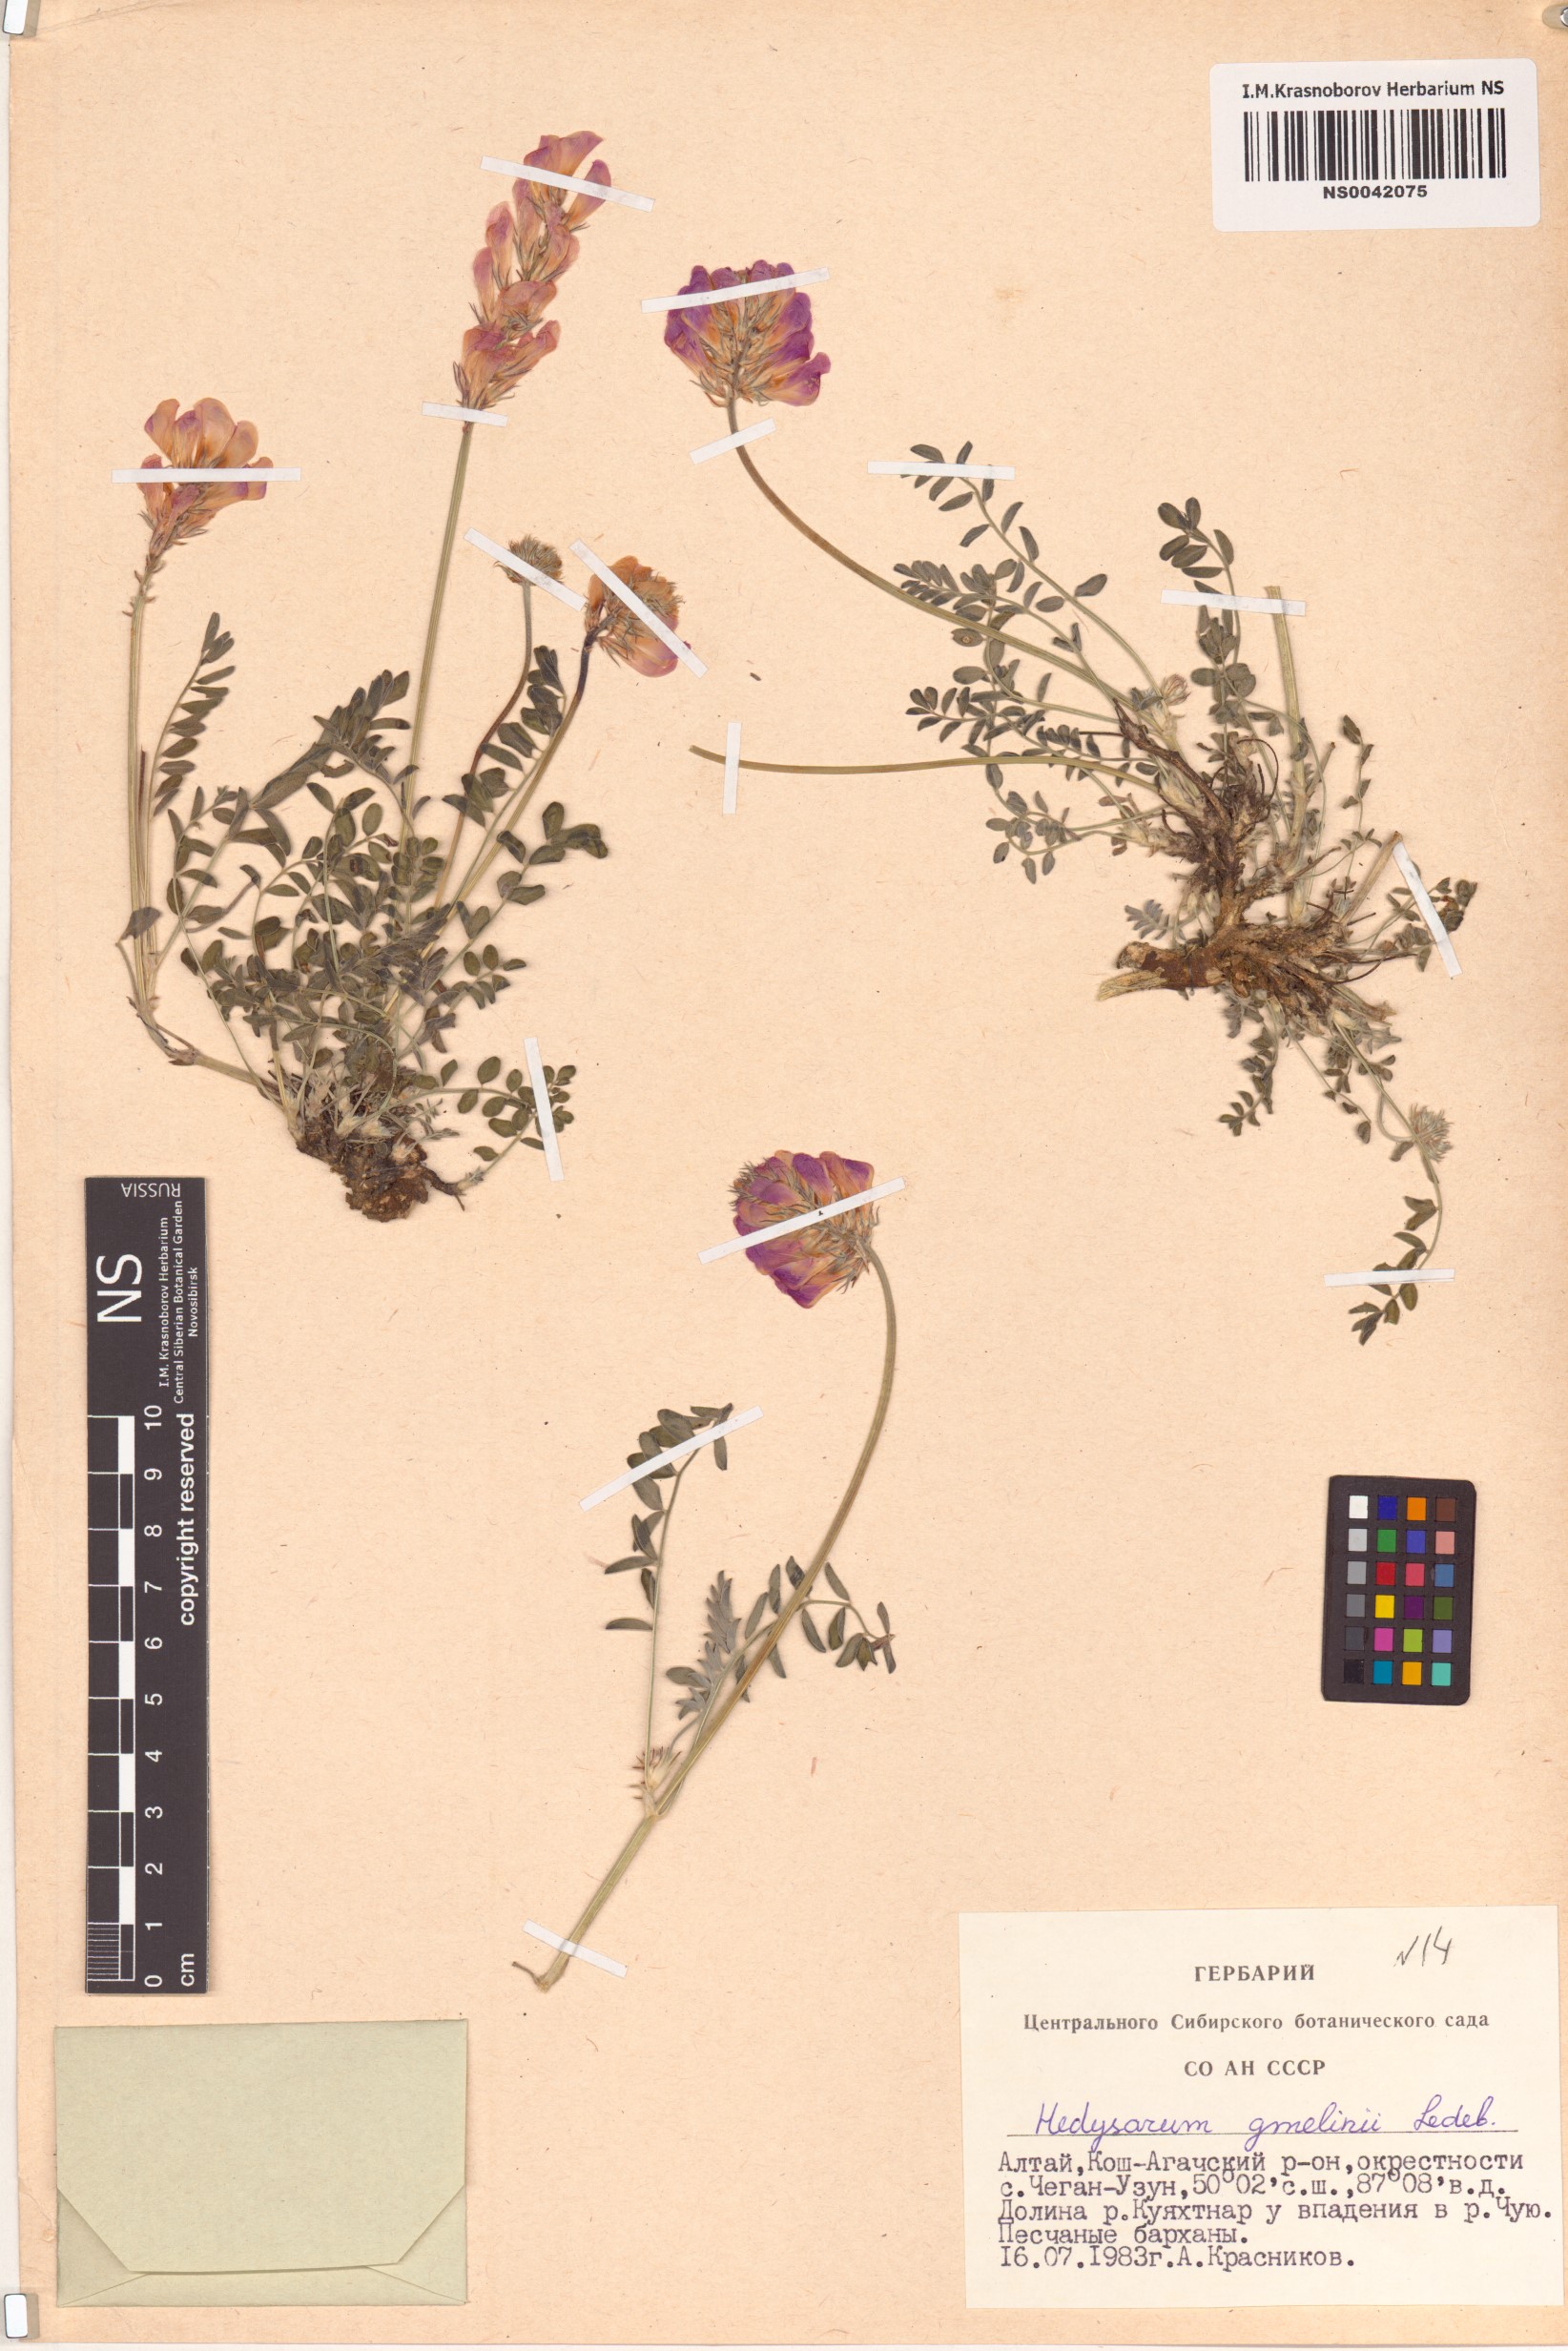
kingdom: Plantae
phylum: Tracheophyta
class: Magnoliopsida
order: Fabales
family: Fabaceae
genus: Hedysarum
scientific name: Hedysarum gmelinii
